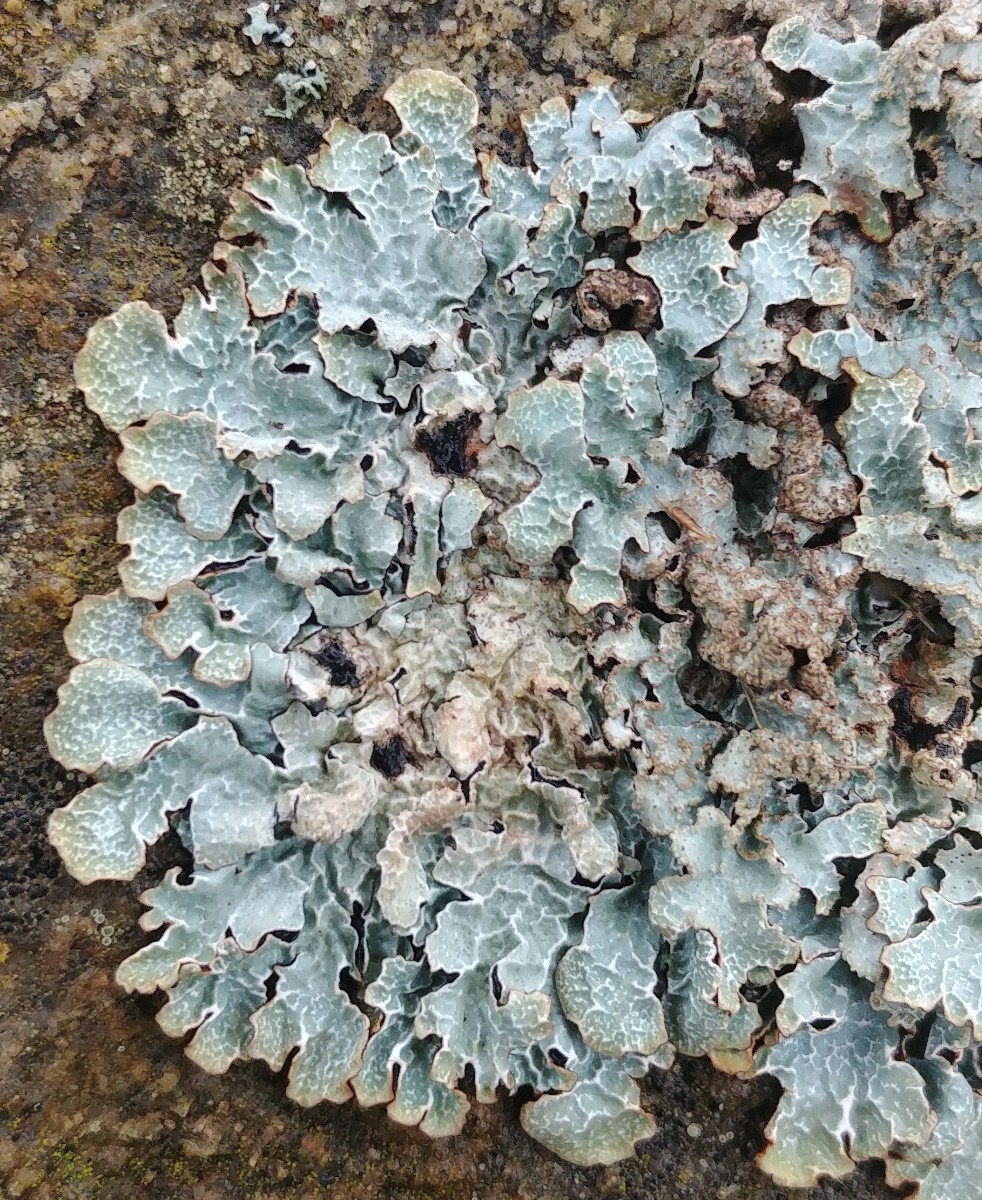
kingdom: Fungi
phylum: Ascomycota
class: Lecanoromycetes
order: Lecanorales
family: Parmeliaceae
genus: Parmelia
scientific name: Parmelia sulcata
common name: rynket skållav
